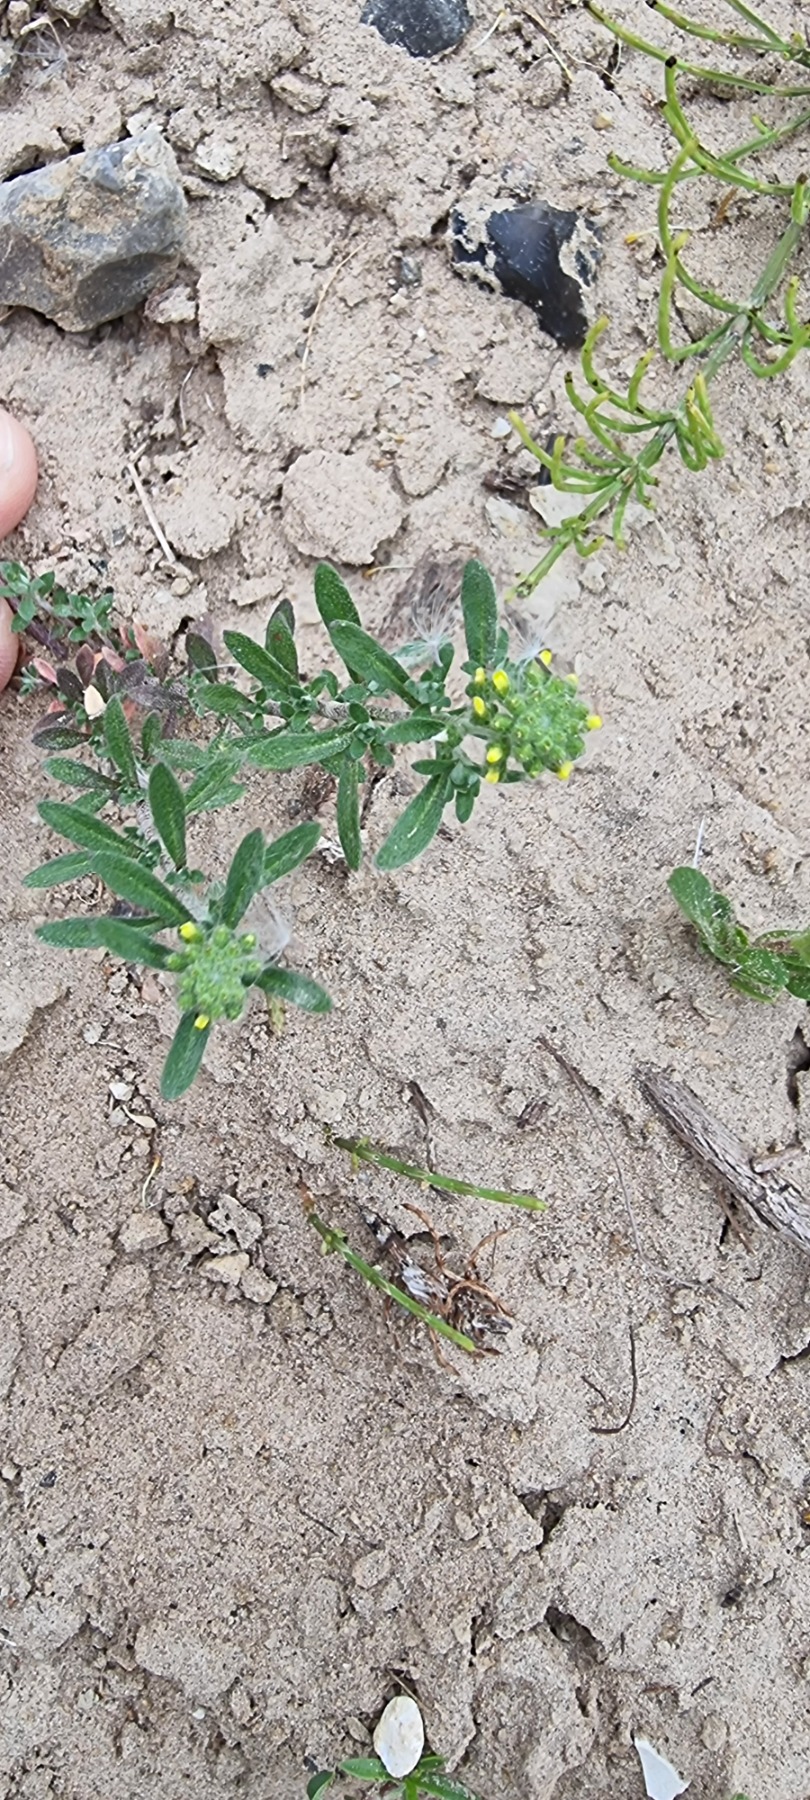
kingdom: Plantae
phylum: Tracheophyta
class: Magnoliopsida
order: Brassicales
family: Brassicaceae
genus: Alyssum
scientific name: Alyssum alyssoides
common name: Grådodder
